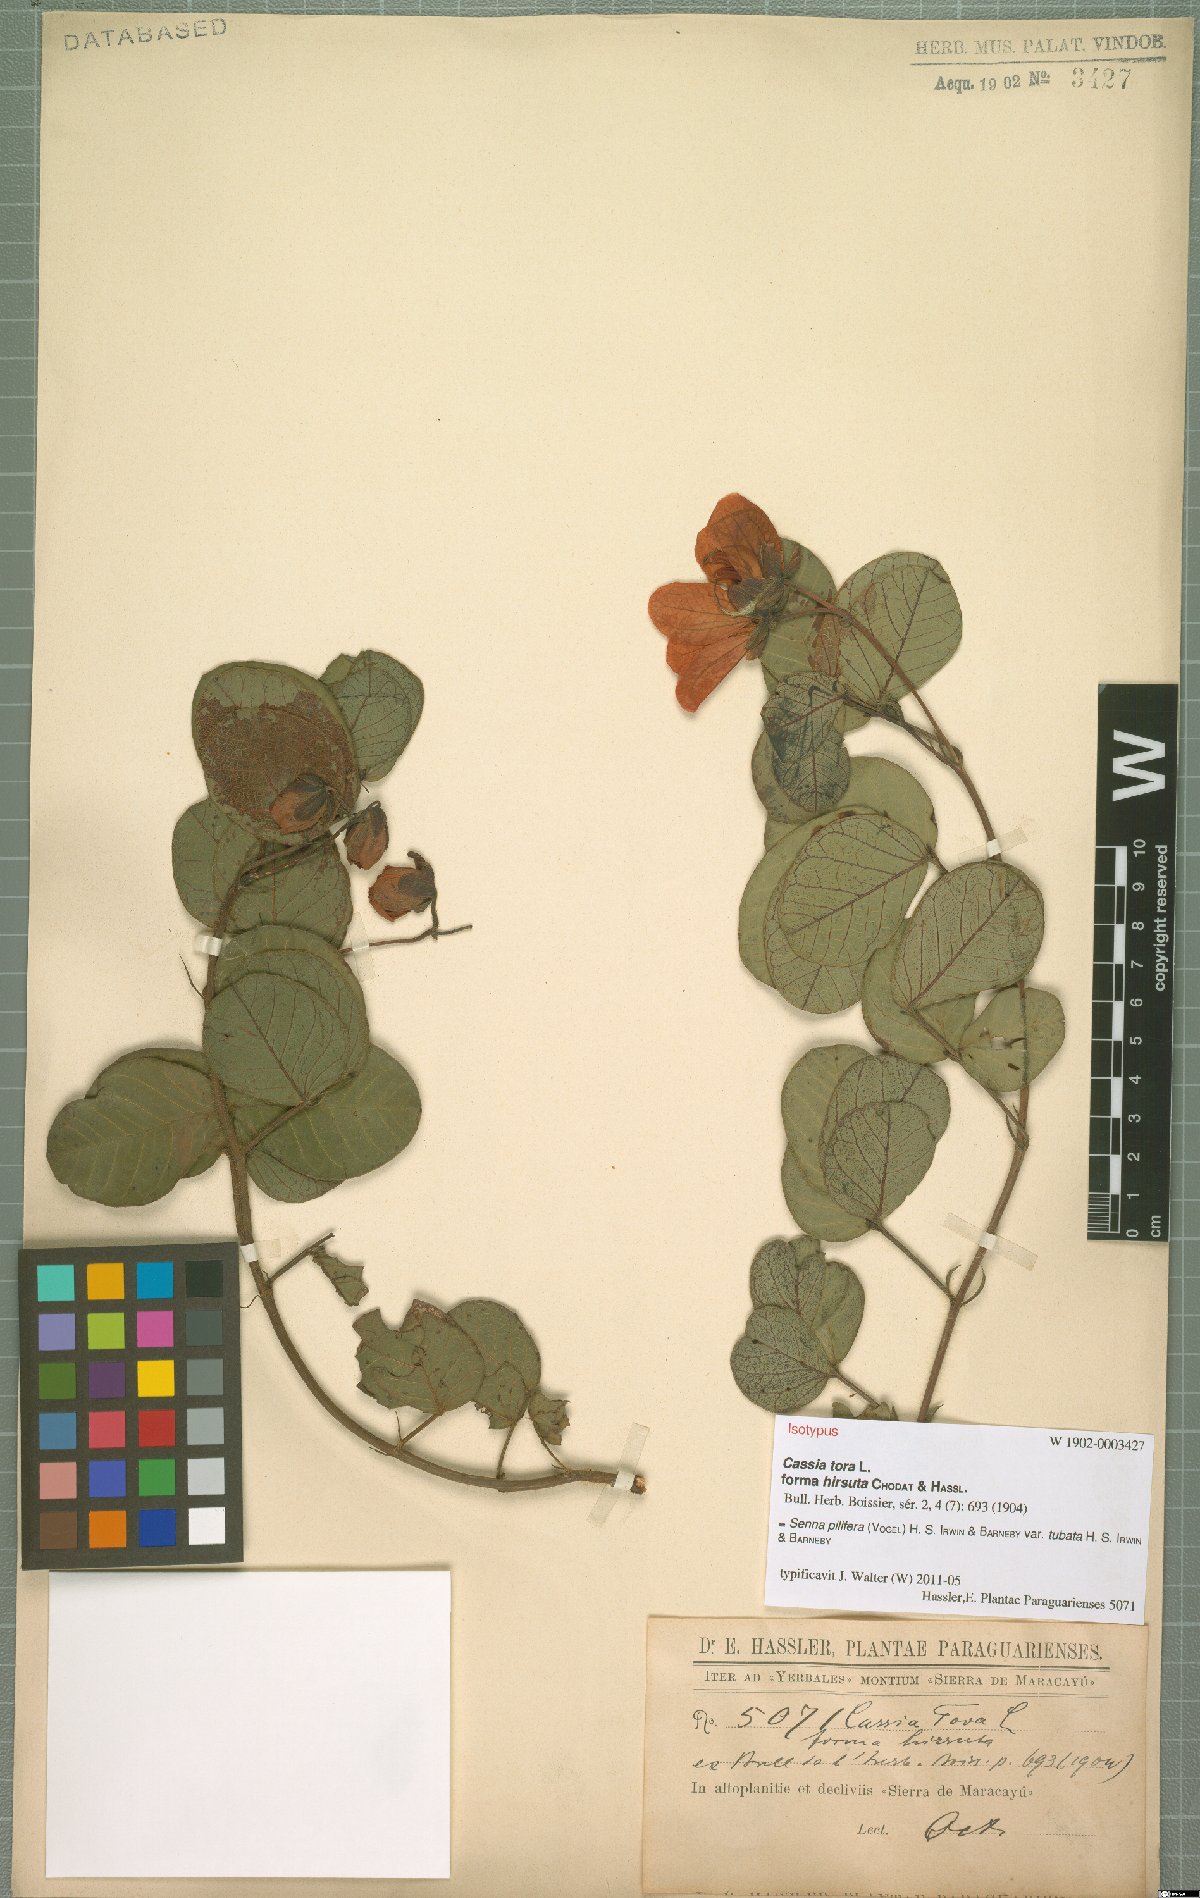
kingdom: Plantae
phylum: Tracheophyta
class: Magnoliopsida
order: Fabales
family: Fabaceae
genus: Senna
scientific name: Senna pilifera
